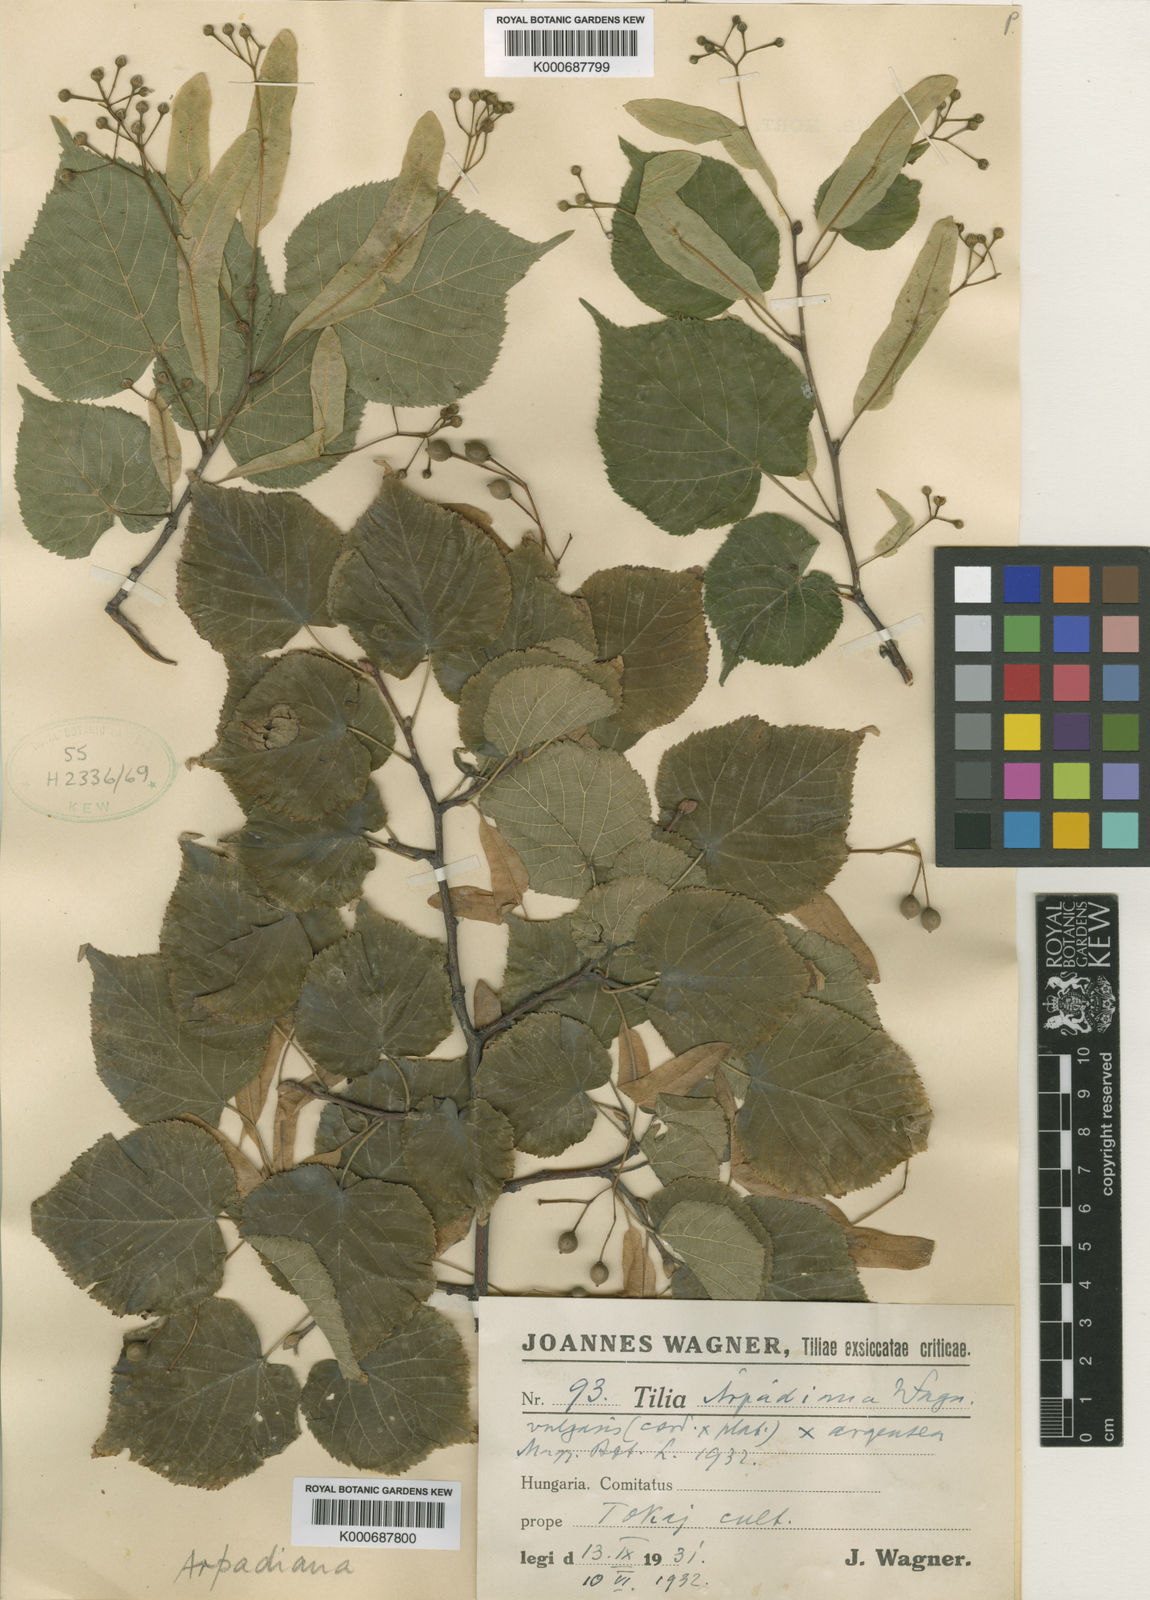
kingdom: Plantae
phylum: Tracheophyta
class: Magnoliopsida
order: Malvales
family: Malvaceae
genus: Tilia
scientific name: Tilia
